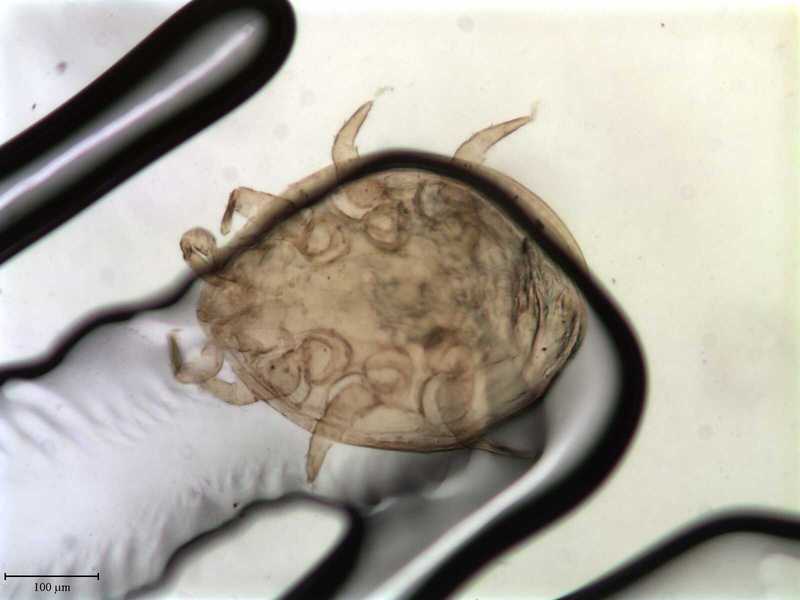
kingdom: Animalia
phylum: Arthropoda
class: Arachnida
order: Mesostigmata
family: Trematuridae
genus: Trichouropoda
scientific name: Trichouropoda polytricha
